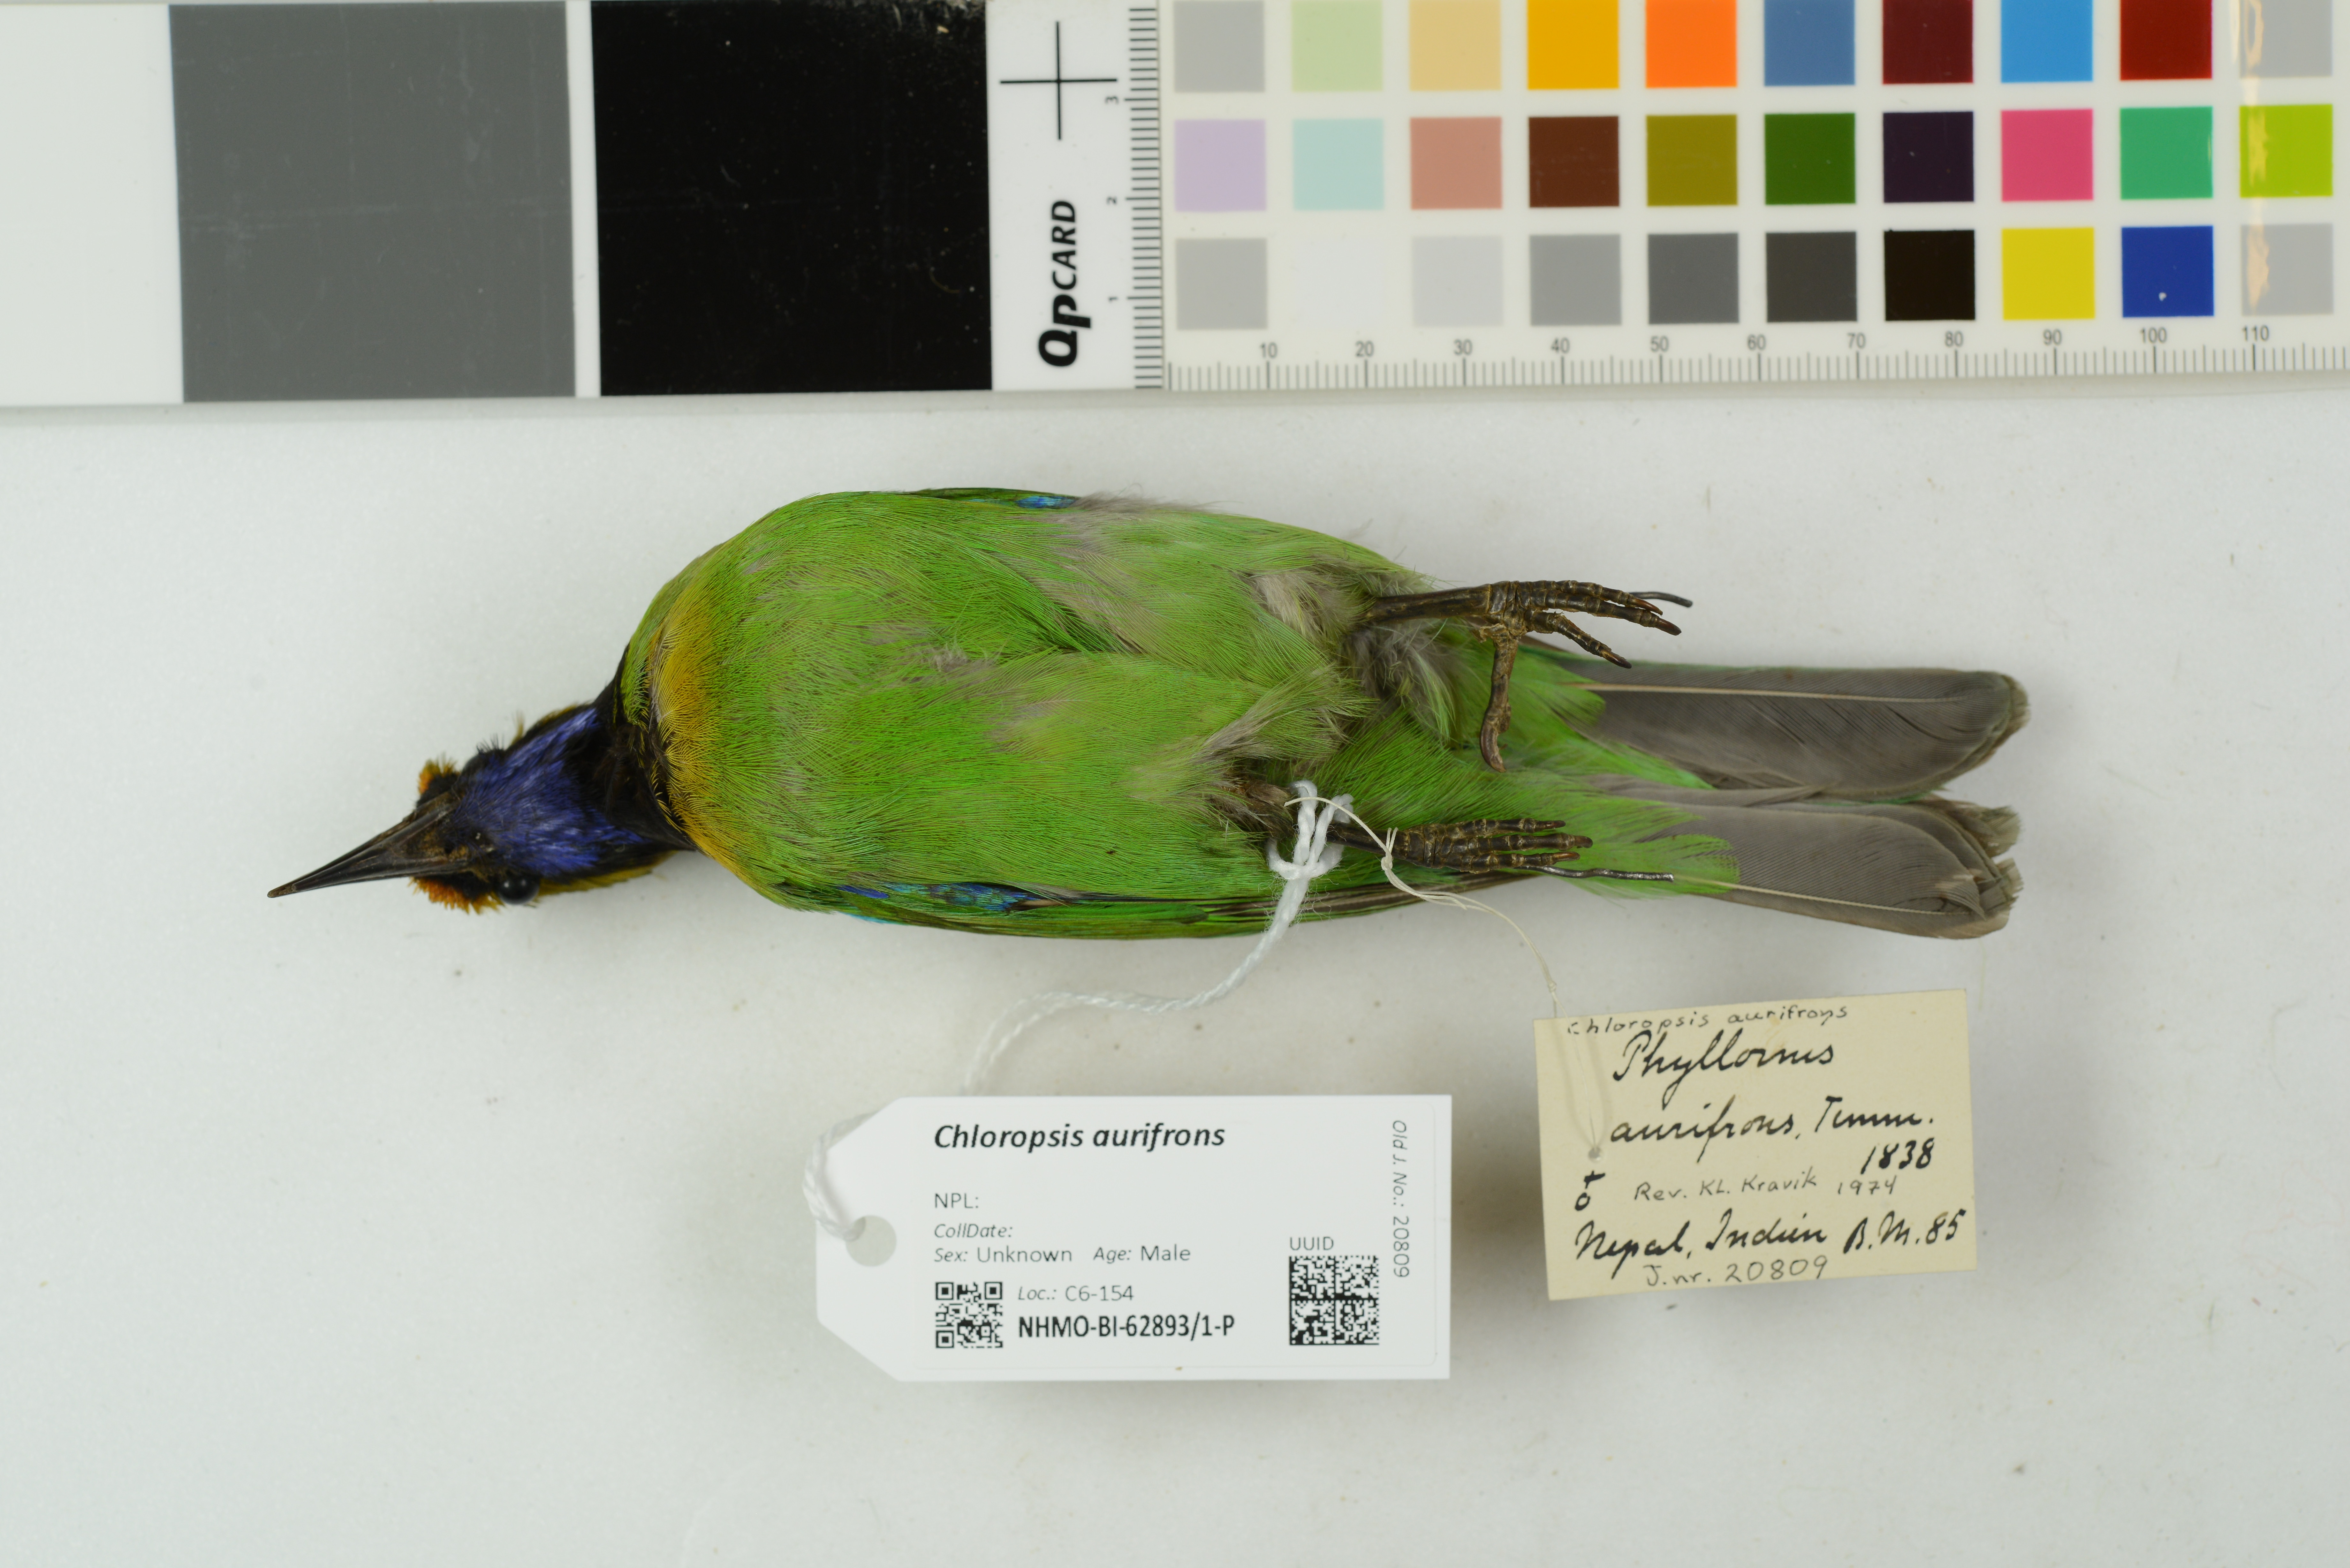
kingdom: Animalia
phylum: Chordata
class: Aves
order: Passeriformes
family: Chloropseidae
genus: Chloropsis
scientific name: Chloropsis aurifrons
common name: Golden-fronted leafbird
